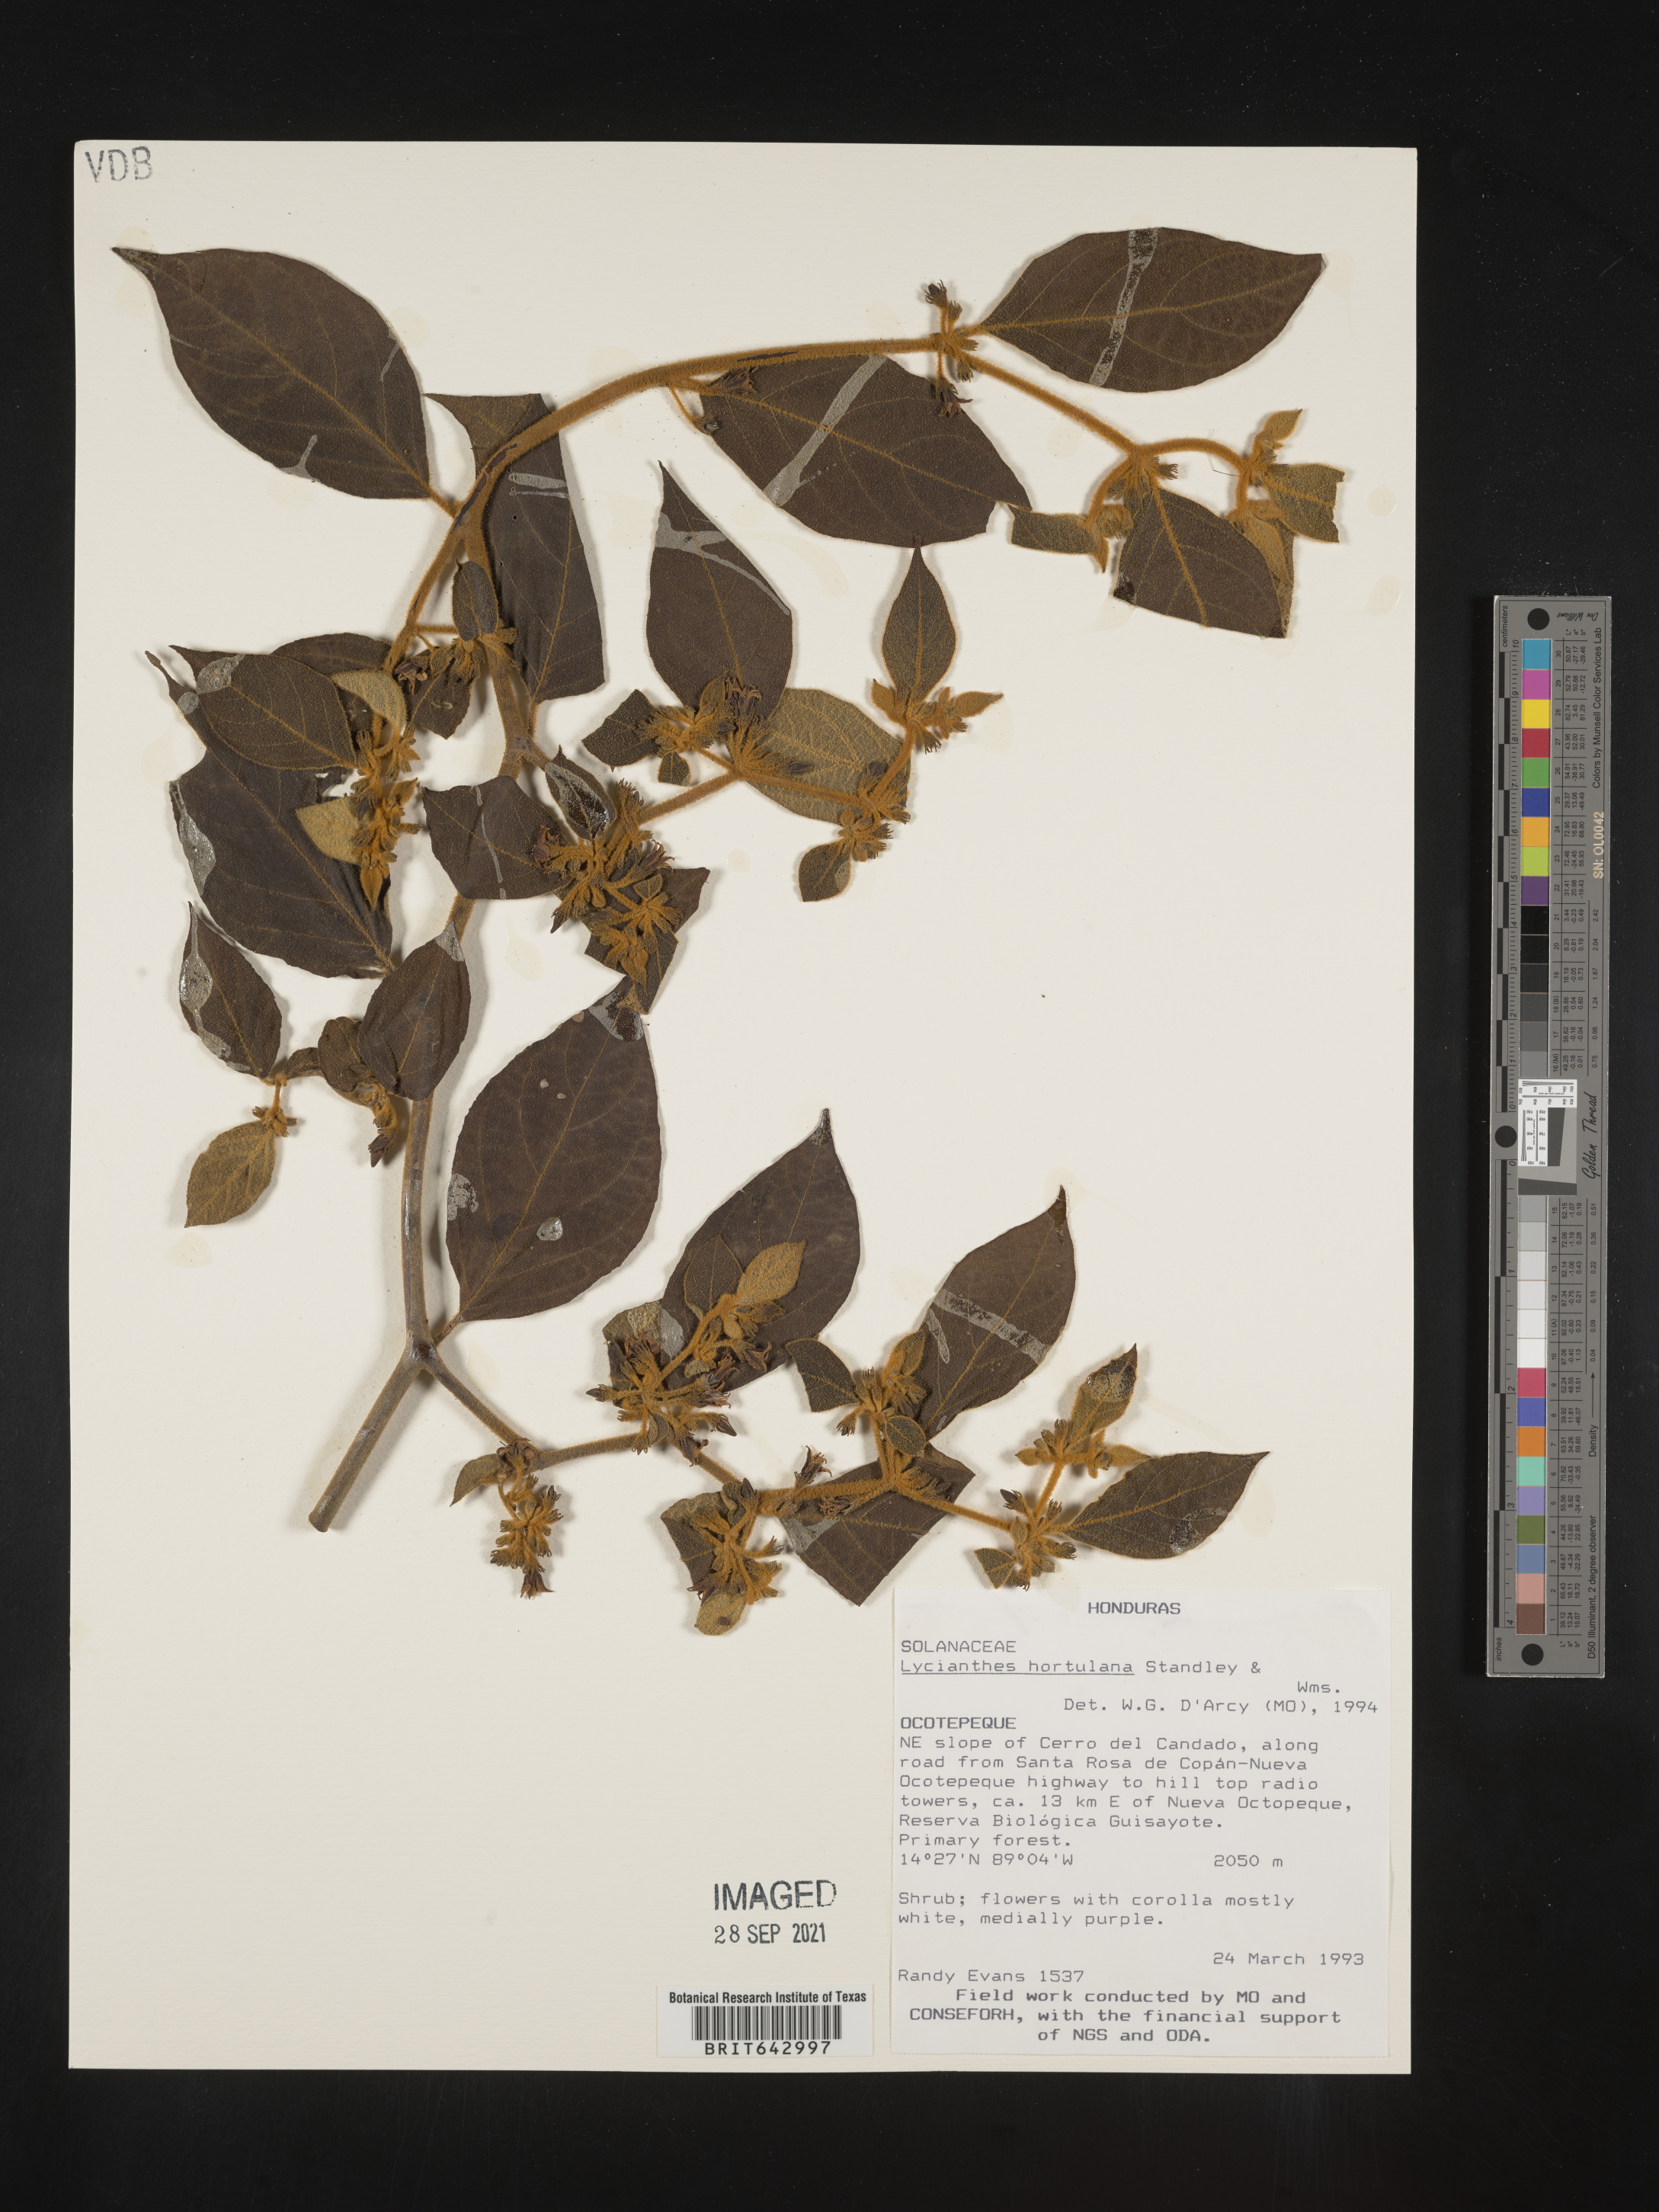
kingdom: Plantae
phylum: Tracheophyta
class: Magnoliopsida
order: Solanales
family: Solanaceae
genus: Lycianthes
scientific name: Lycianthes
